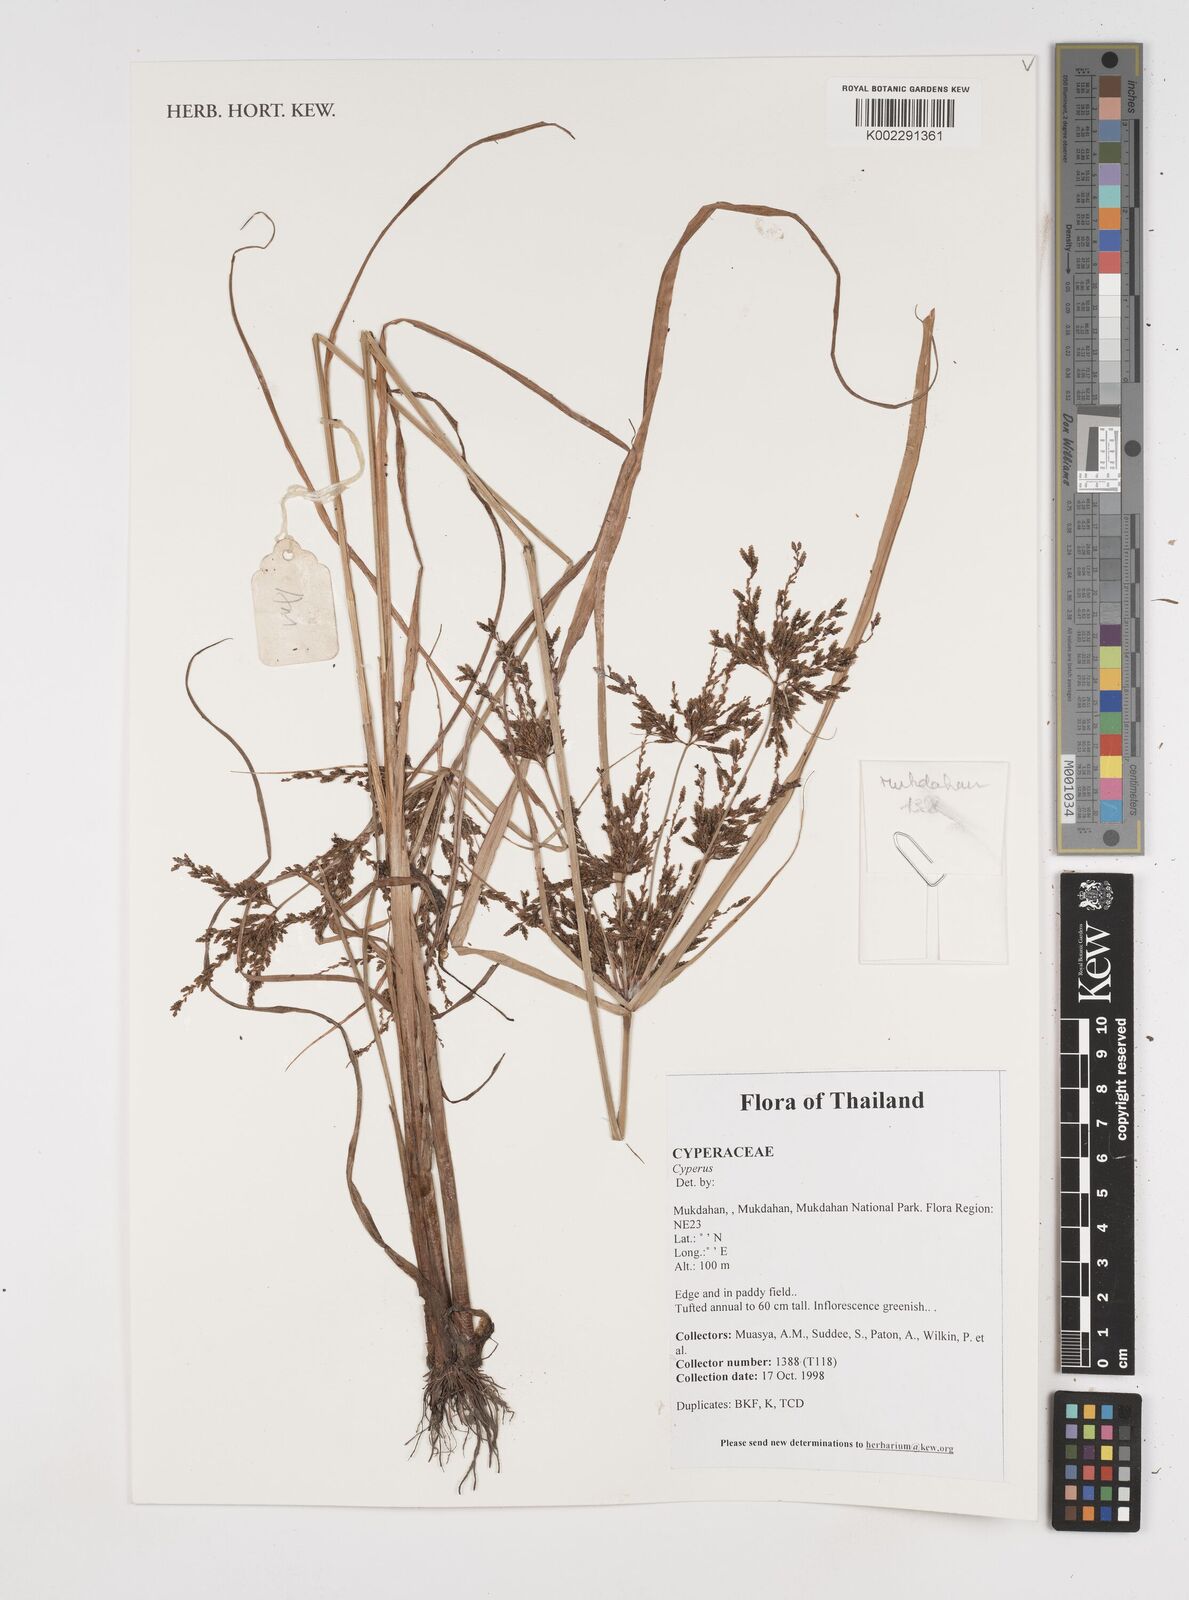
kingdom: Plantae
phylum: Tracheophyta
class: Liliopsida
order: Poales
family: Cyperaceae
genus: Cyperus
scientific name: Cyperus
